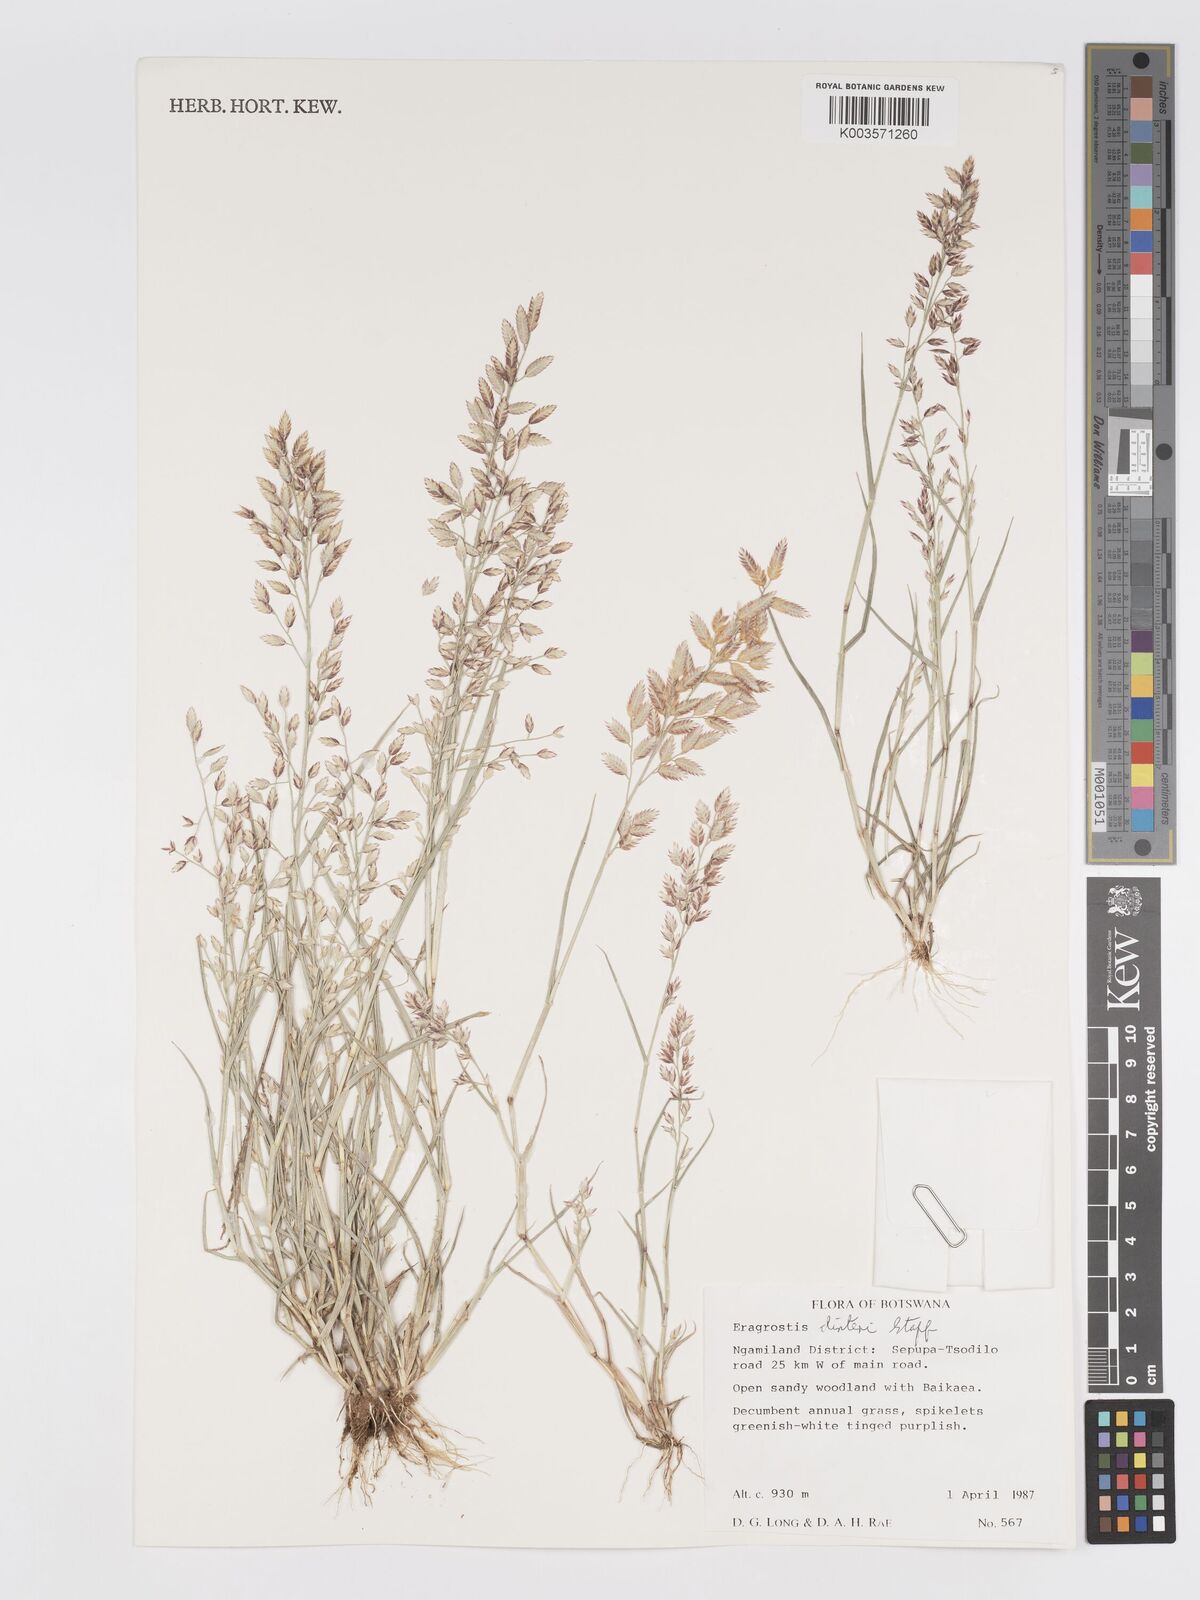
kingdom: Plantae
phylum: Tracheophyta
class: Liliopsida
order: Poales
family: Poaceae
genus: Eragrostis
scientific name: Eragrostis dinteri
